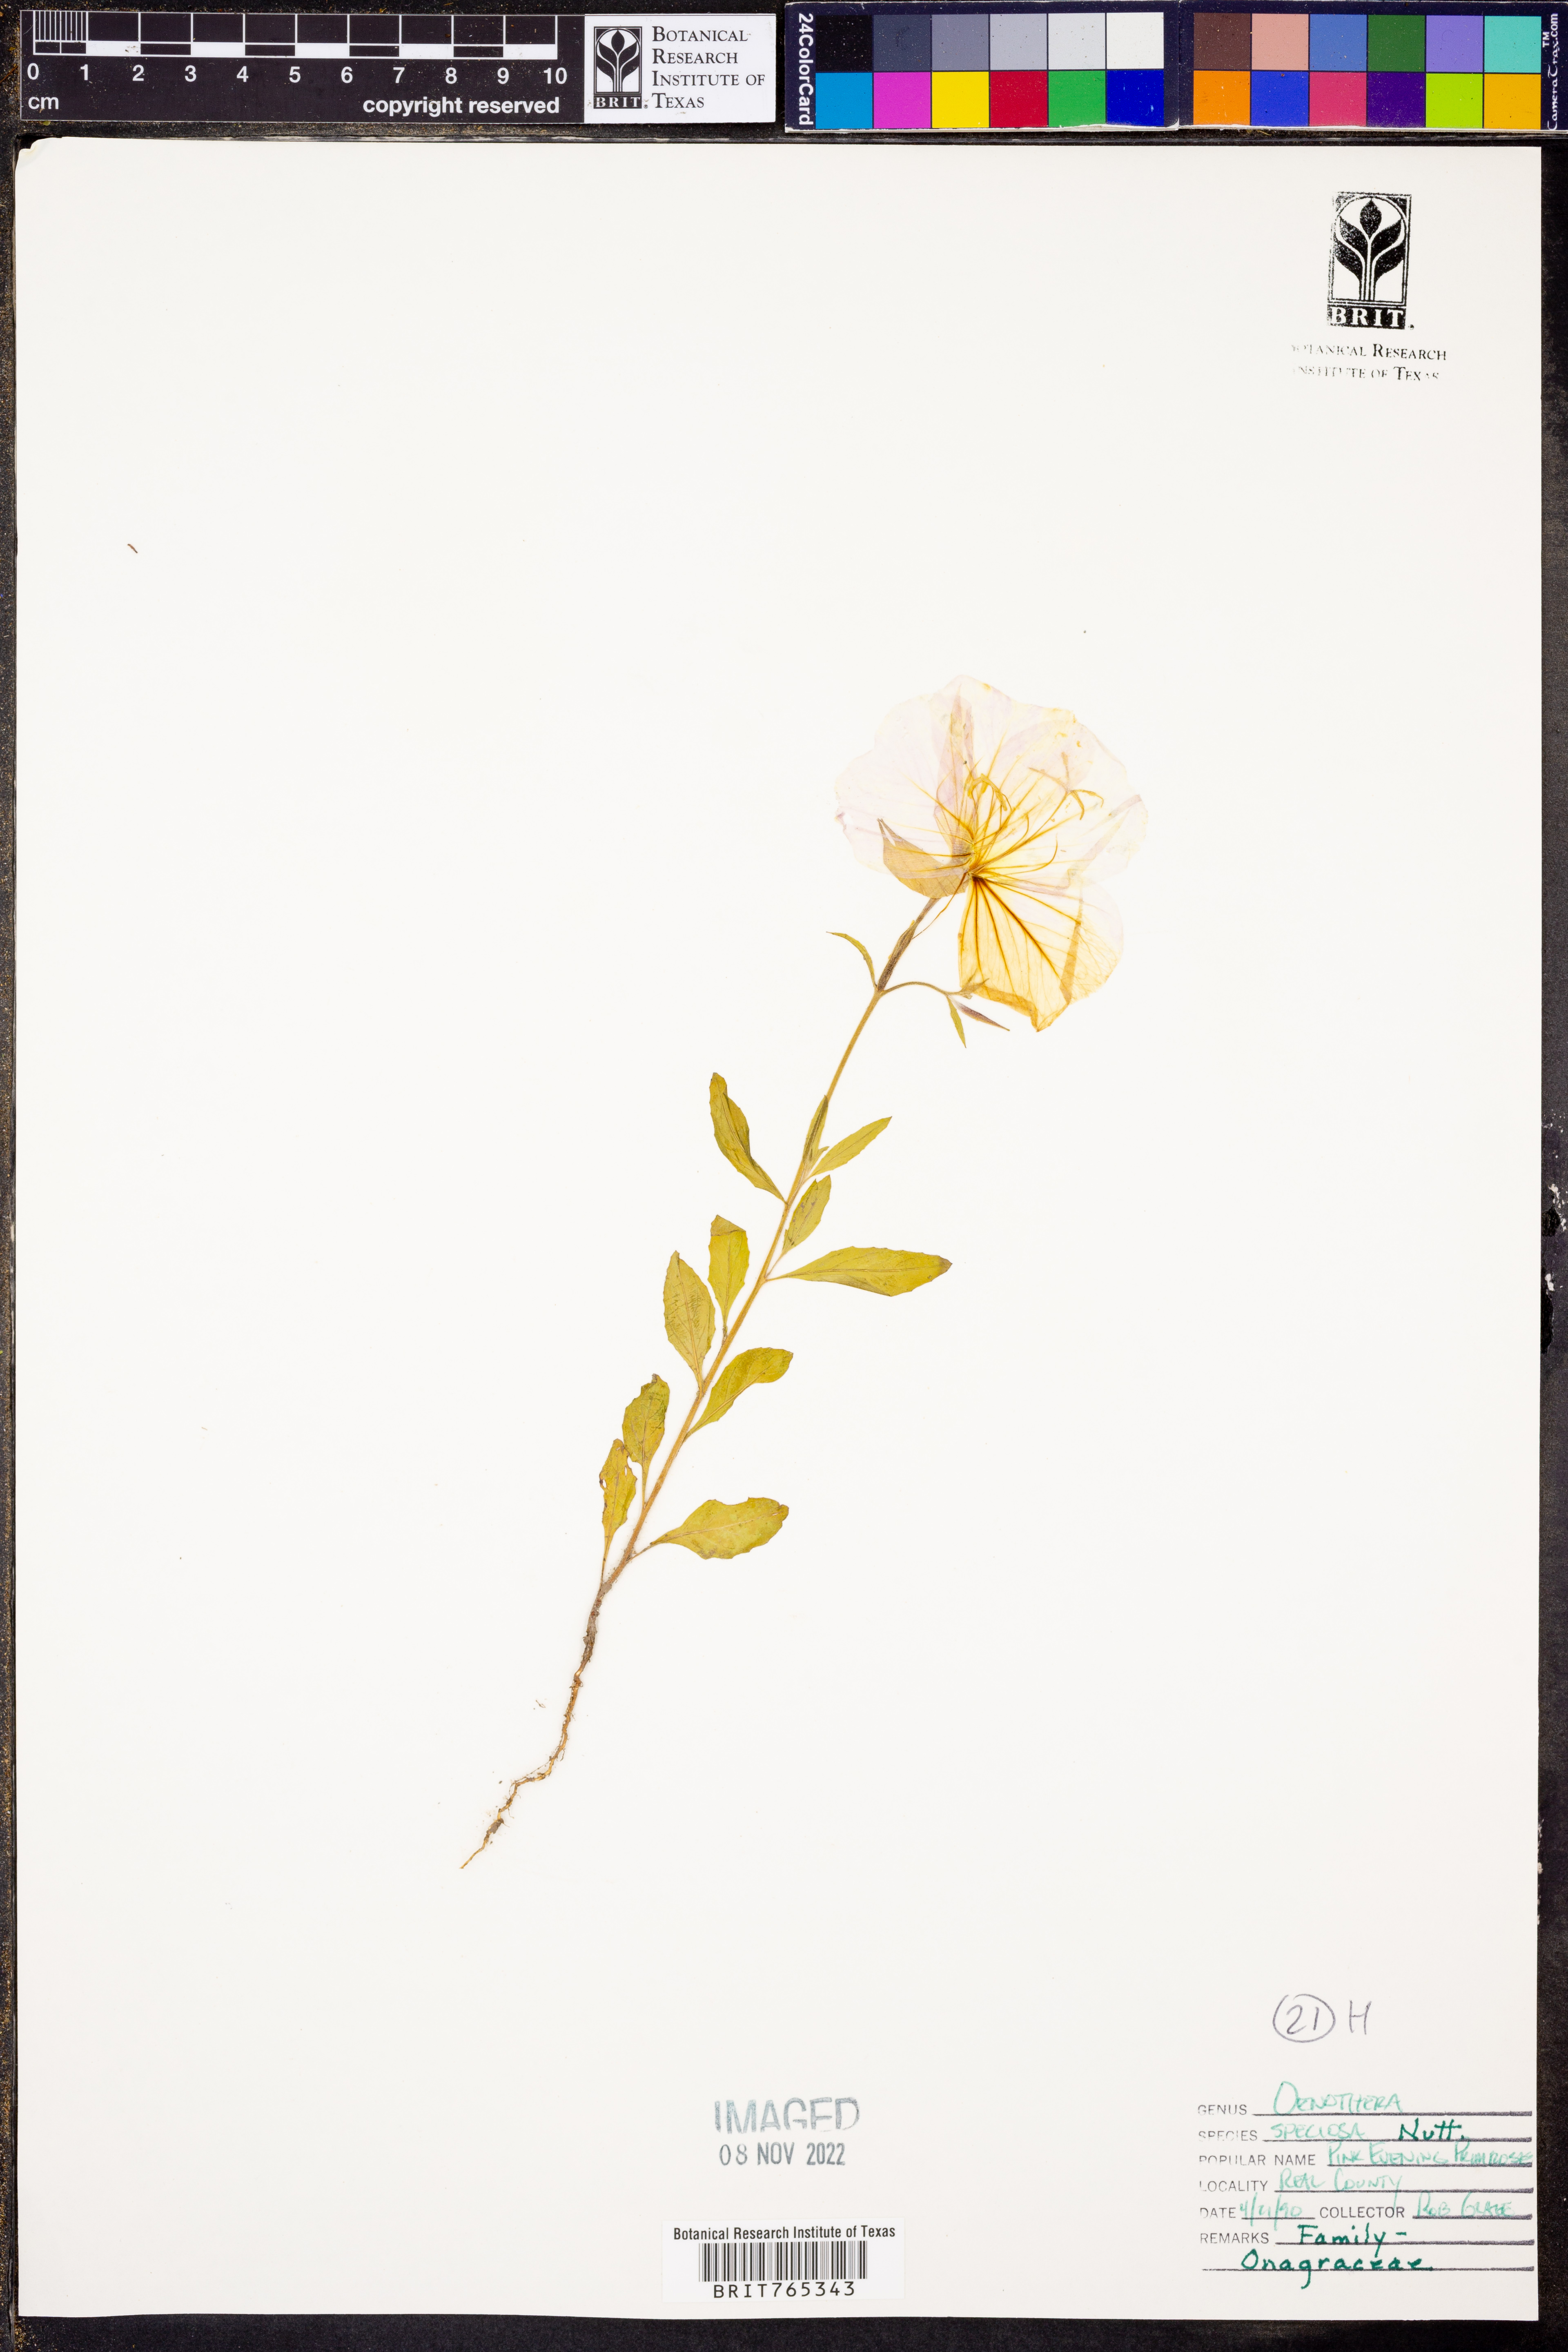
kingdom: Plantae
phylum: Tracheophyta
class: Magnoliopsida
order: Myrtales
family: Onagraceae
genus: Oenothera
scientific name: Oenothera speciosa
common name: White evening-primrose
